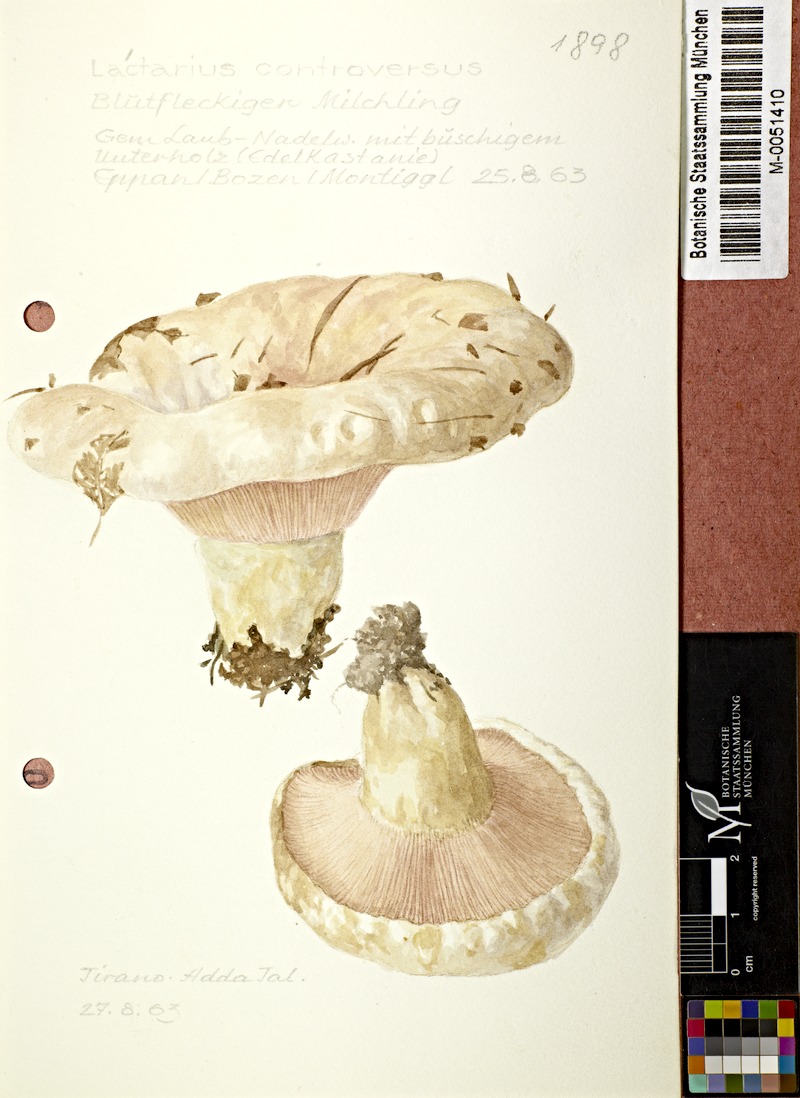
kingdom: Fungi
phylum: Basidiomycota
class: Agaricomycetes
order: Russulales
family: Russulaceae
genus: Lactarius
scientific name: Lactarius controversus
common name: Blushing milkcap
